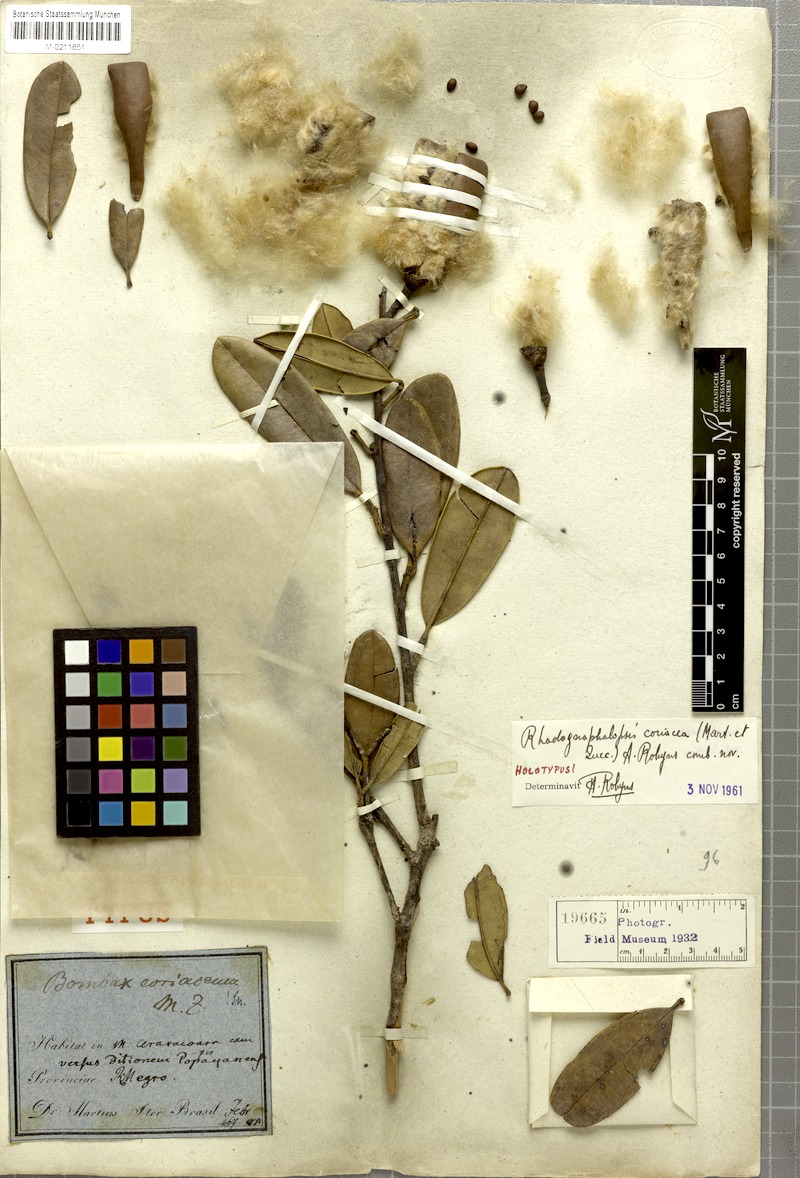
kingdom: Plantae
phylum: Tracheophyta
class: Magnoliopsida
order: Malvales
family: Malvaceae
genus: Pachira
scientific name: Pachira coriacea
